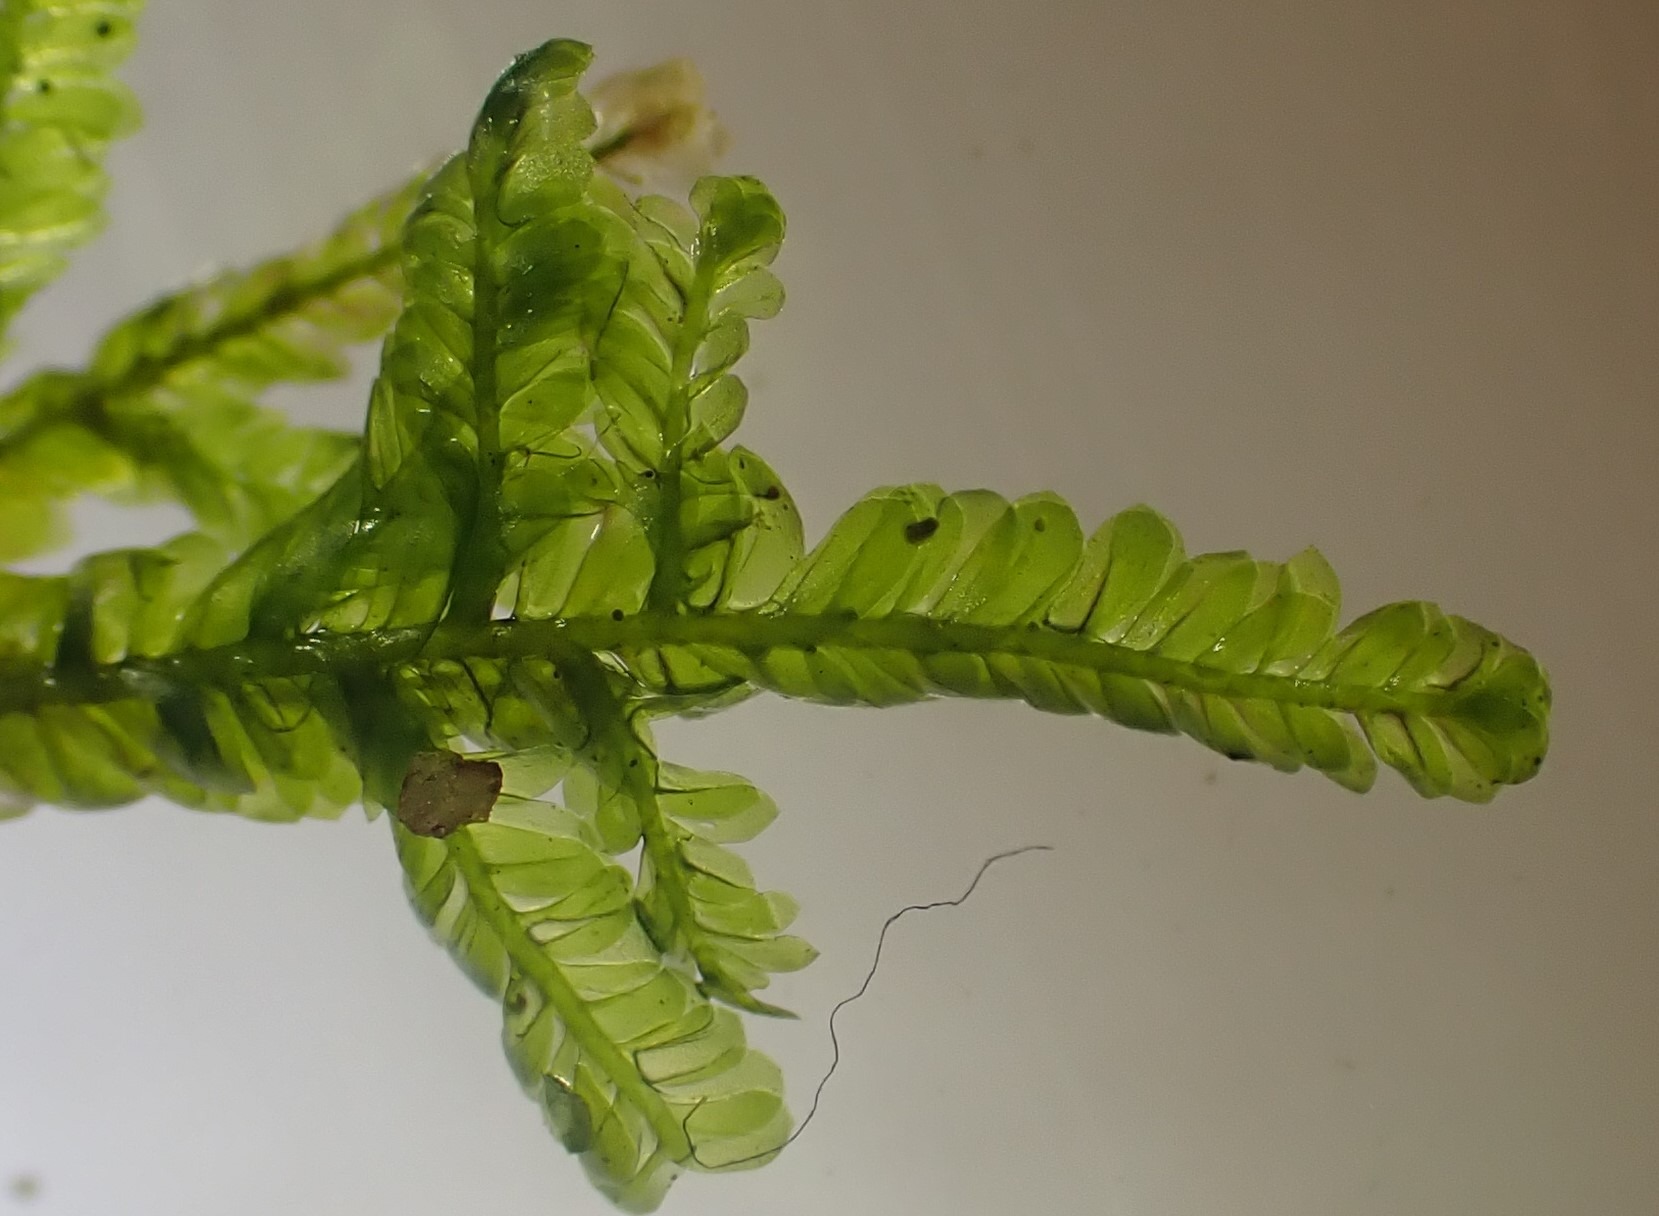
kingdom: Plantae
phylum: Bryophyta
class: Bryopsida
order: Hypnales
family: Neckeraceae
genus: Homalia
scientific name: Homalia trichomanoides
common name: Skov-tungemos
